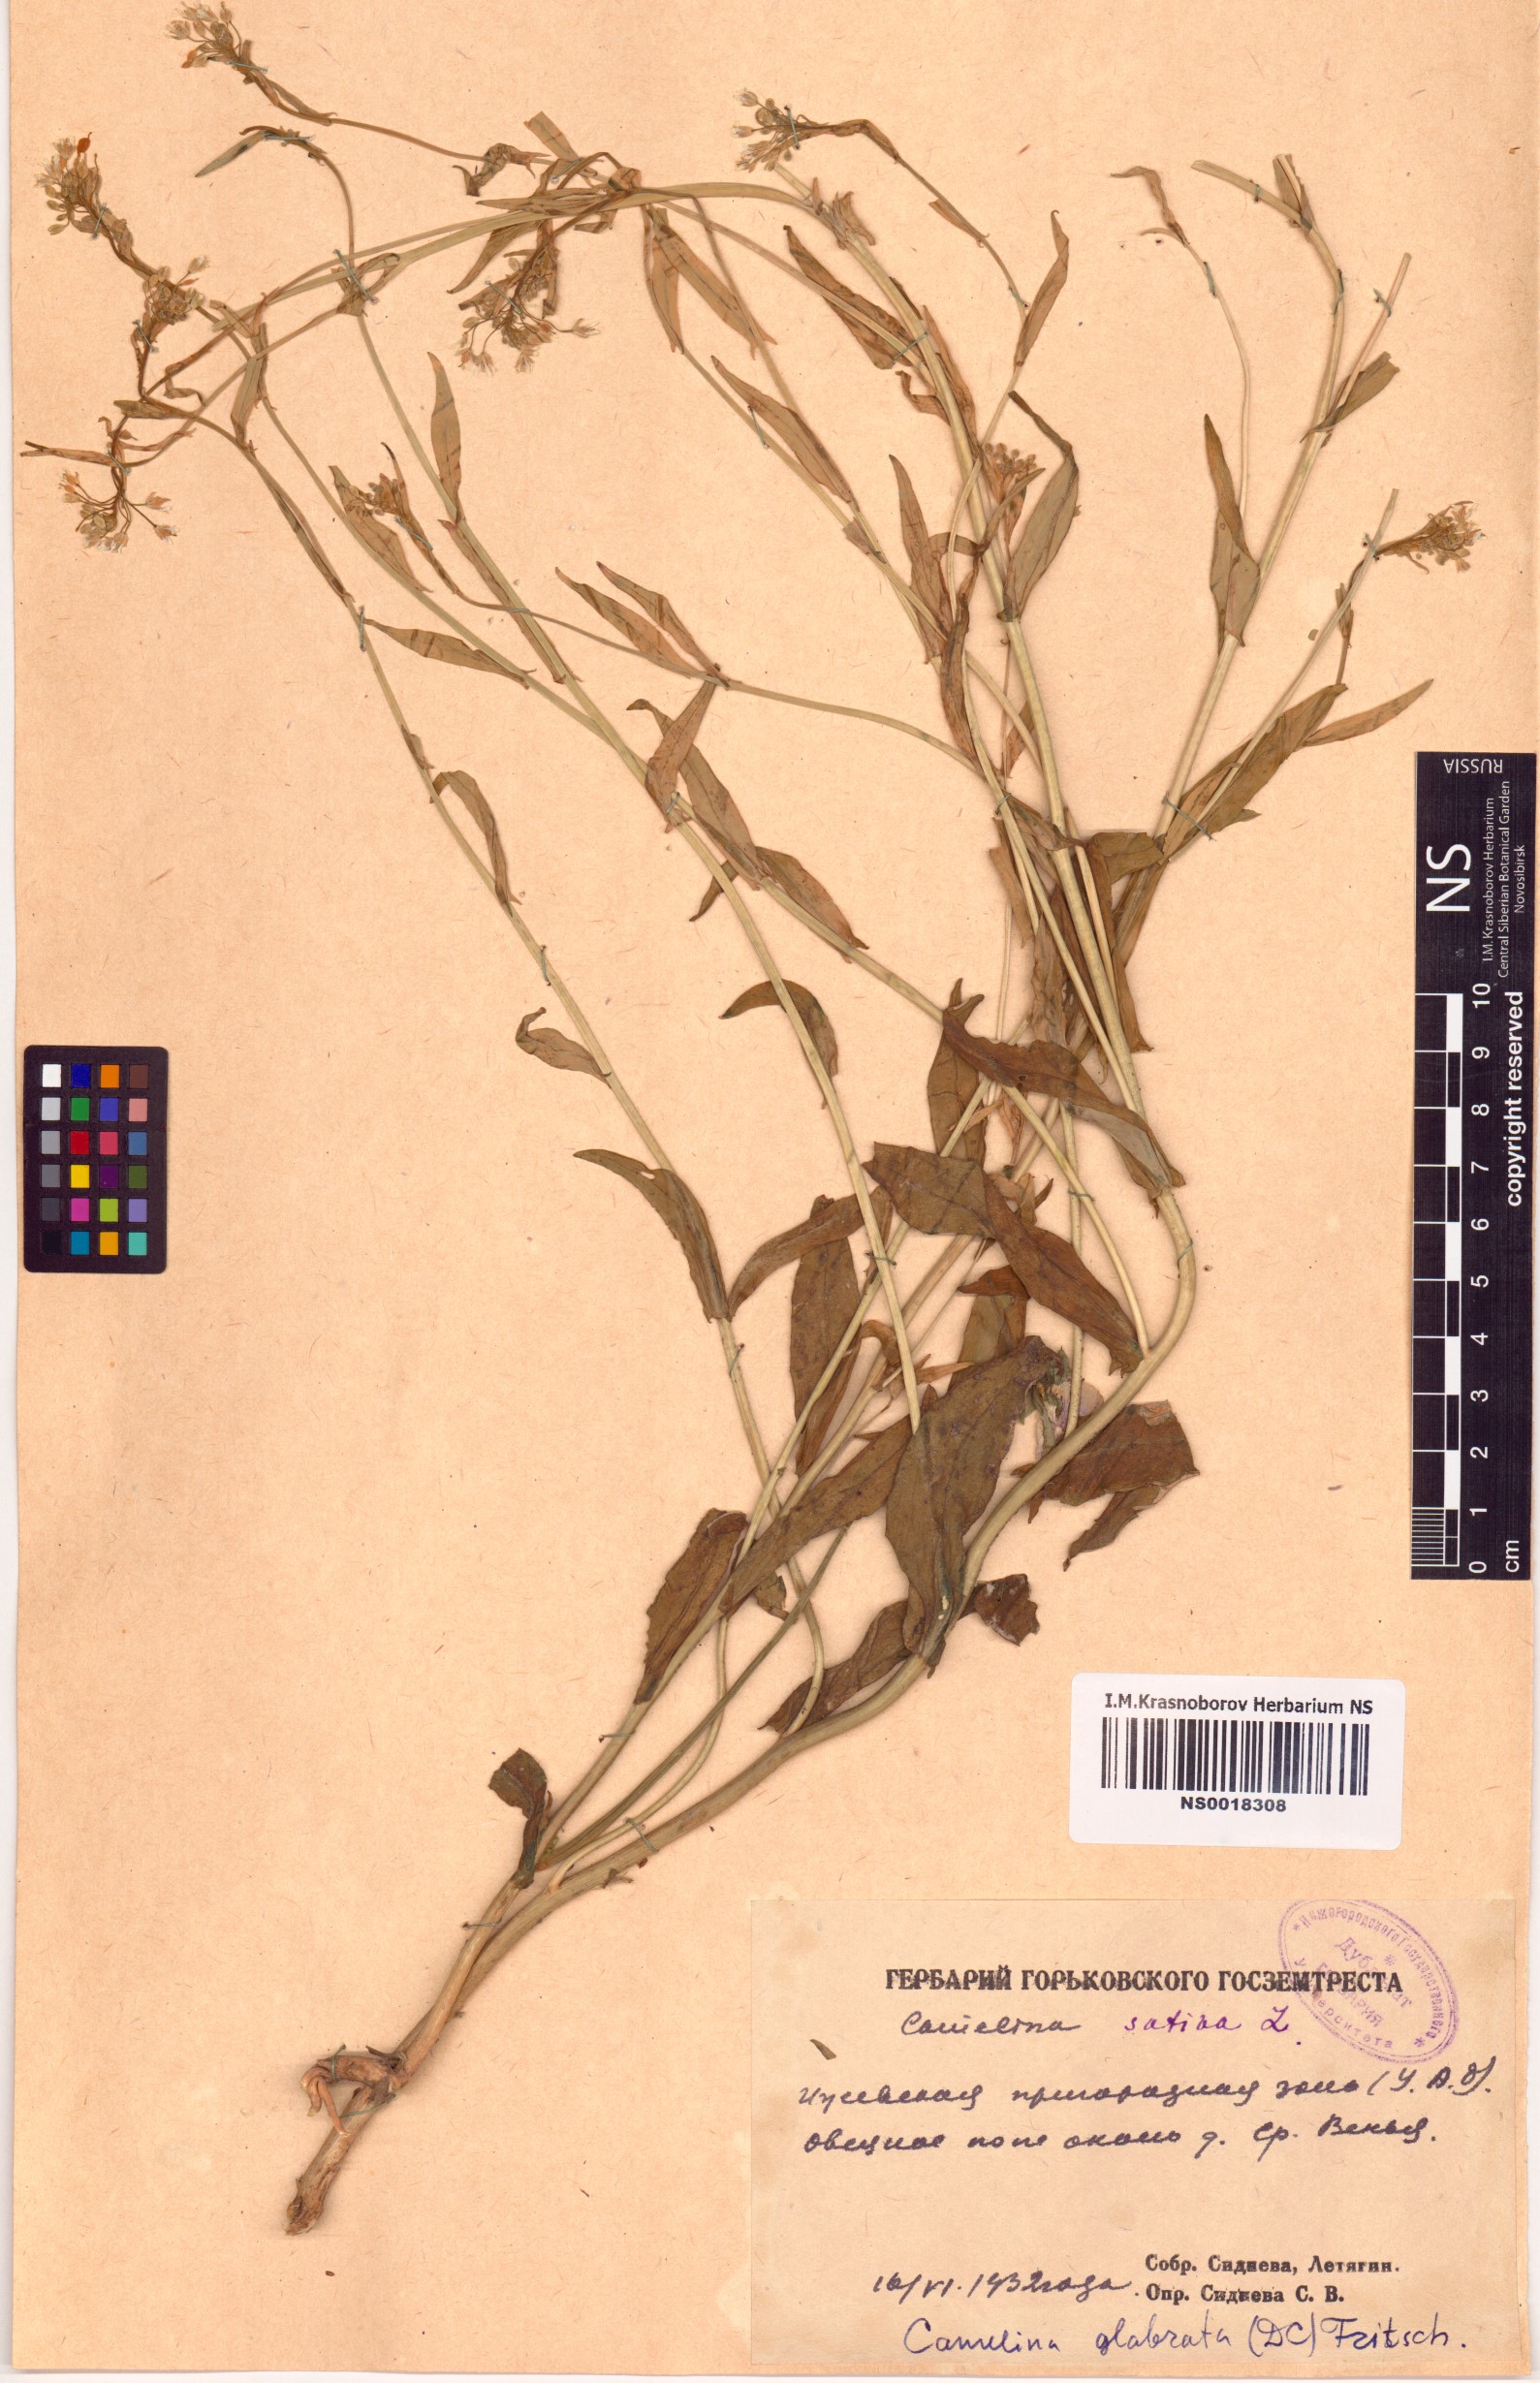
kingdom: Plantae
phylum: Tracheophyta
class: Magnoliopsida
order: Brassicales
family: Brassicaceae
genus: Camelina
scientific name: Camelina sativa
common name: Gold-of-pleasure
